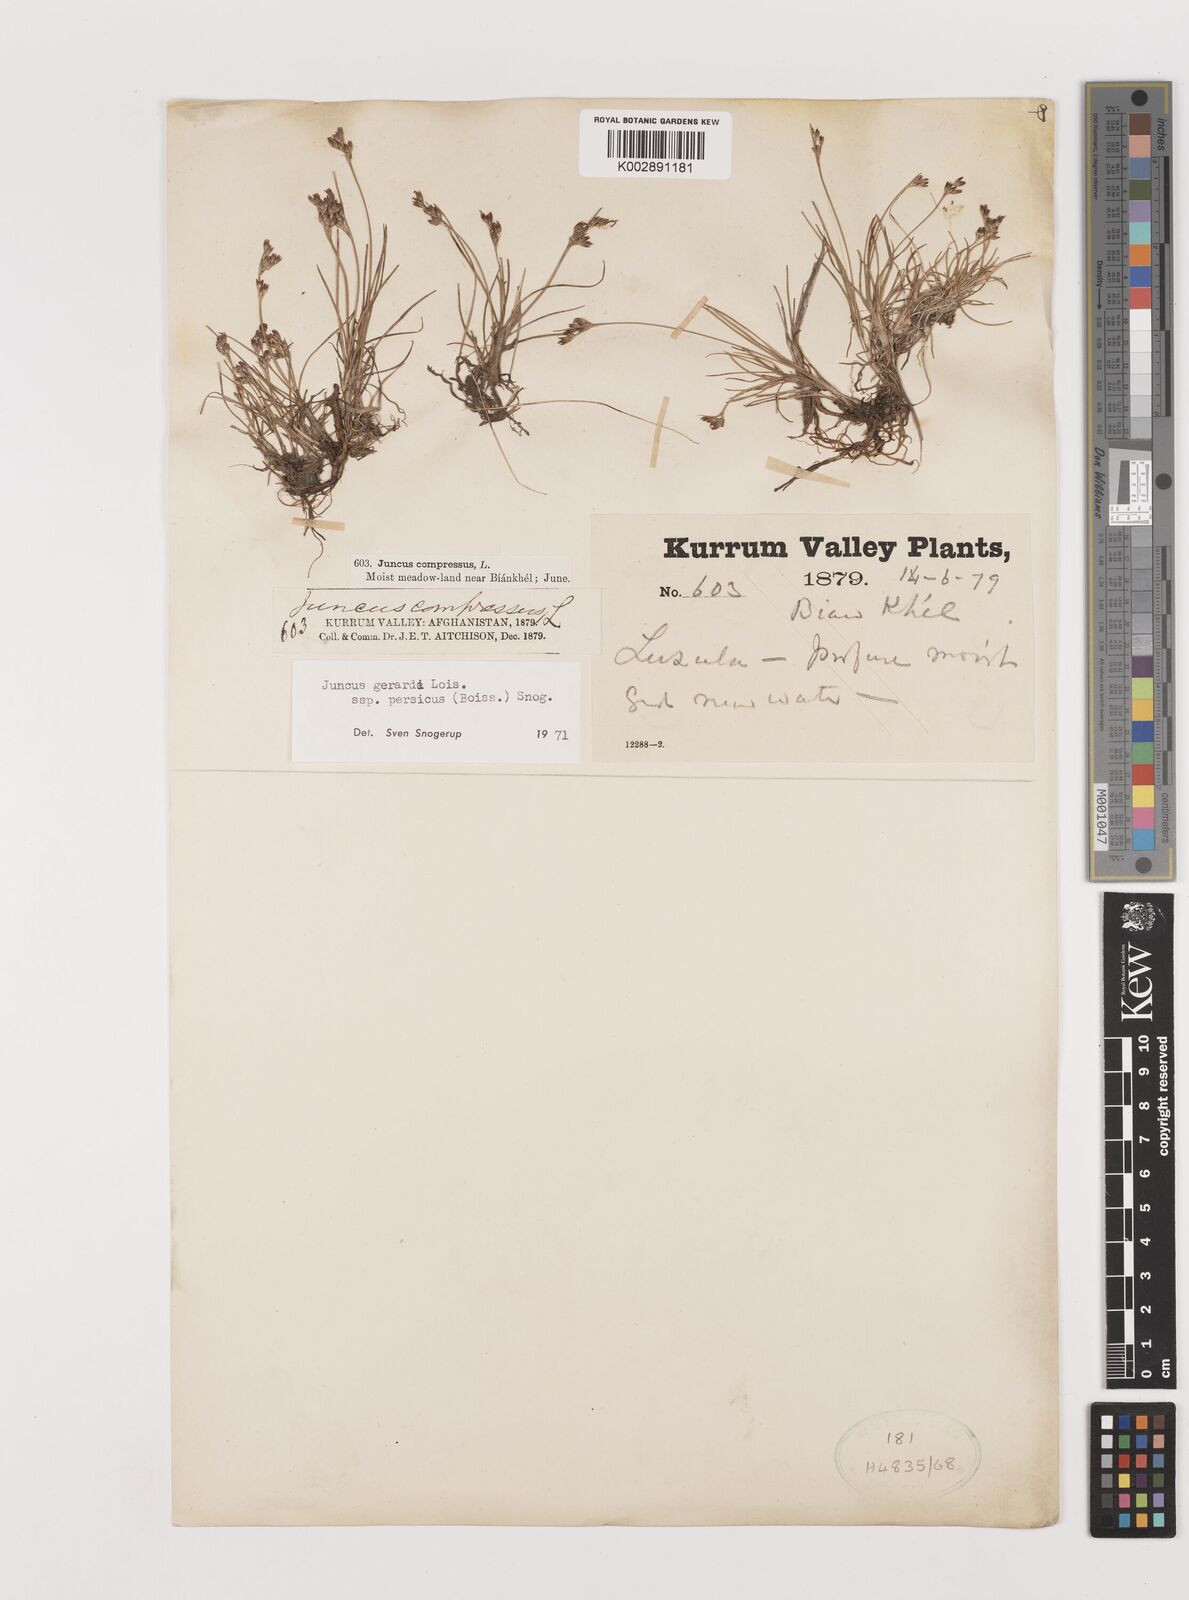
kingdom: Plantae
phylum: Tracheophyta
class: Liliopsida
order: Poales
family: Juncaceae
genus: Juncus
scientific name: Juncus persicus
